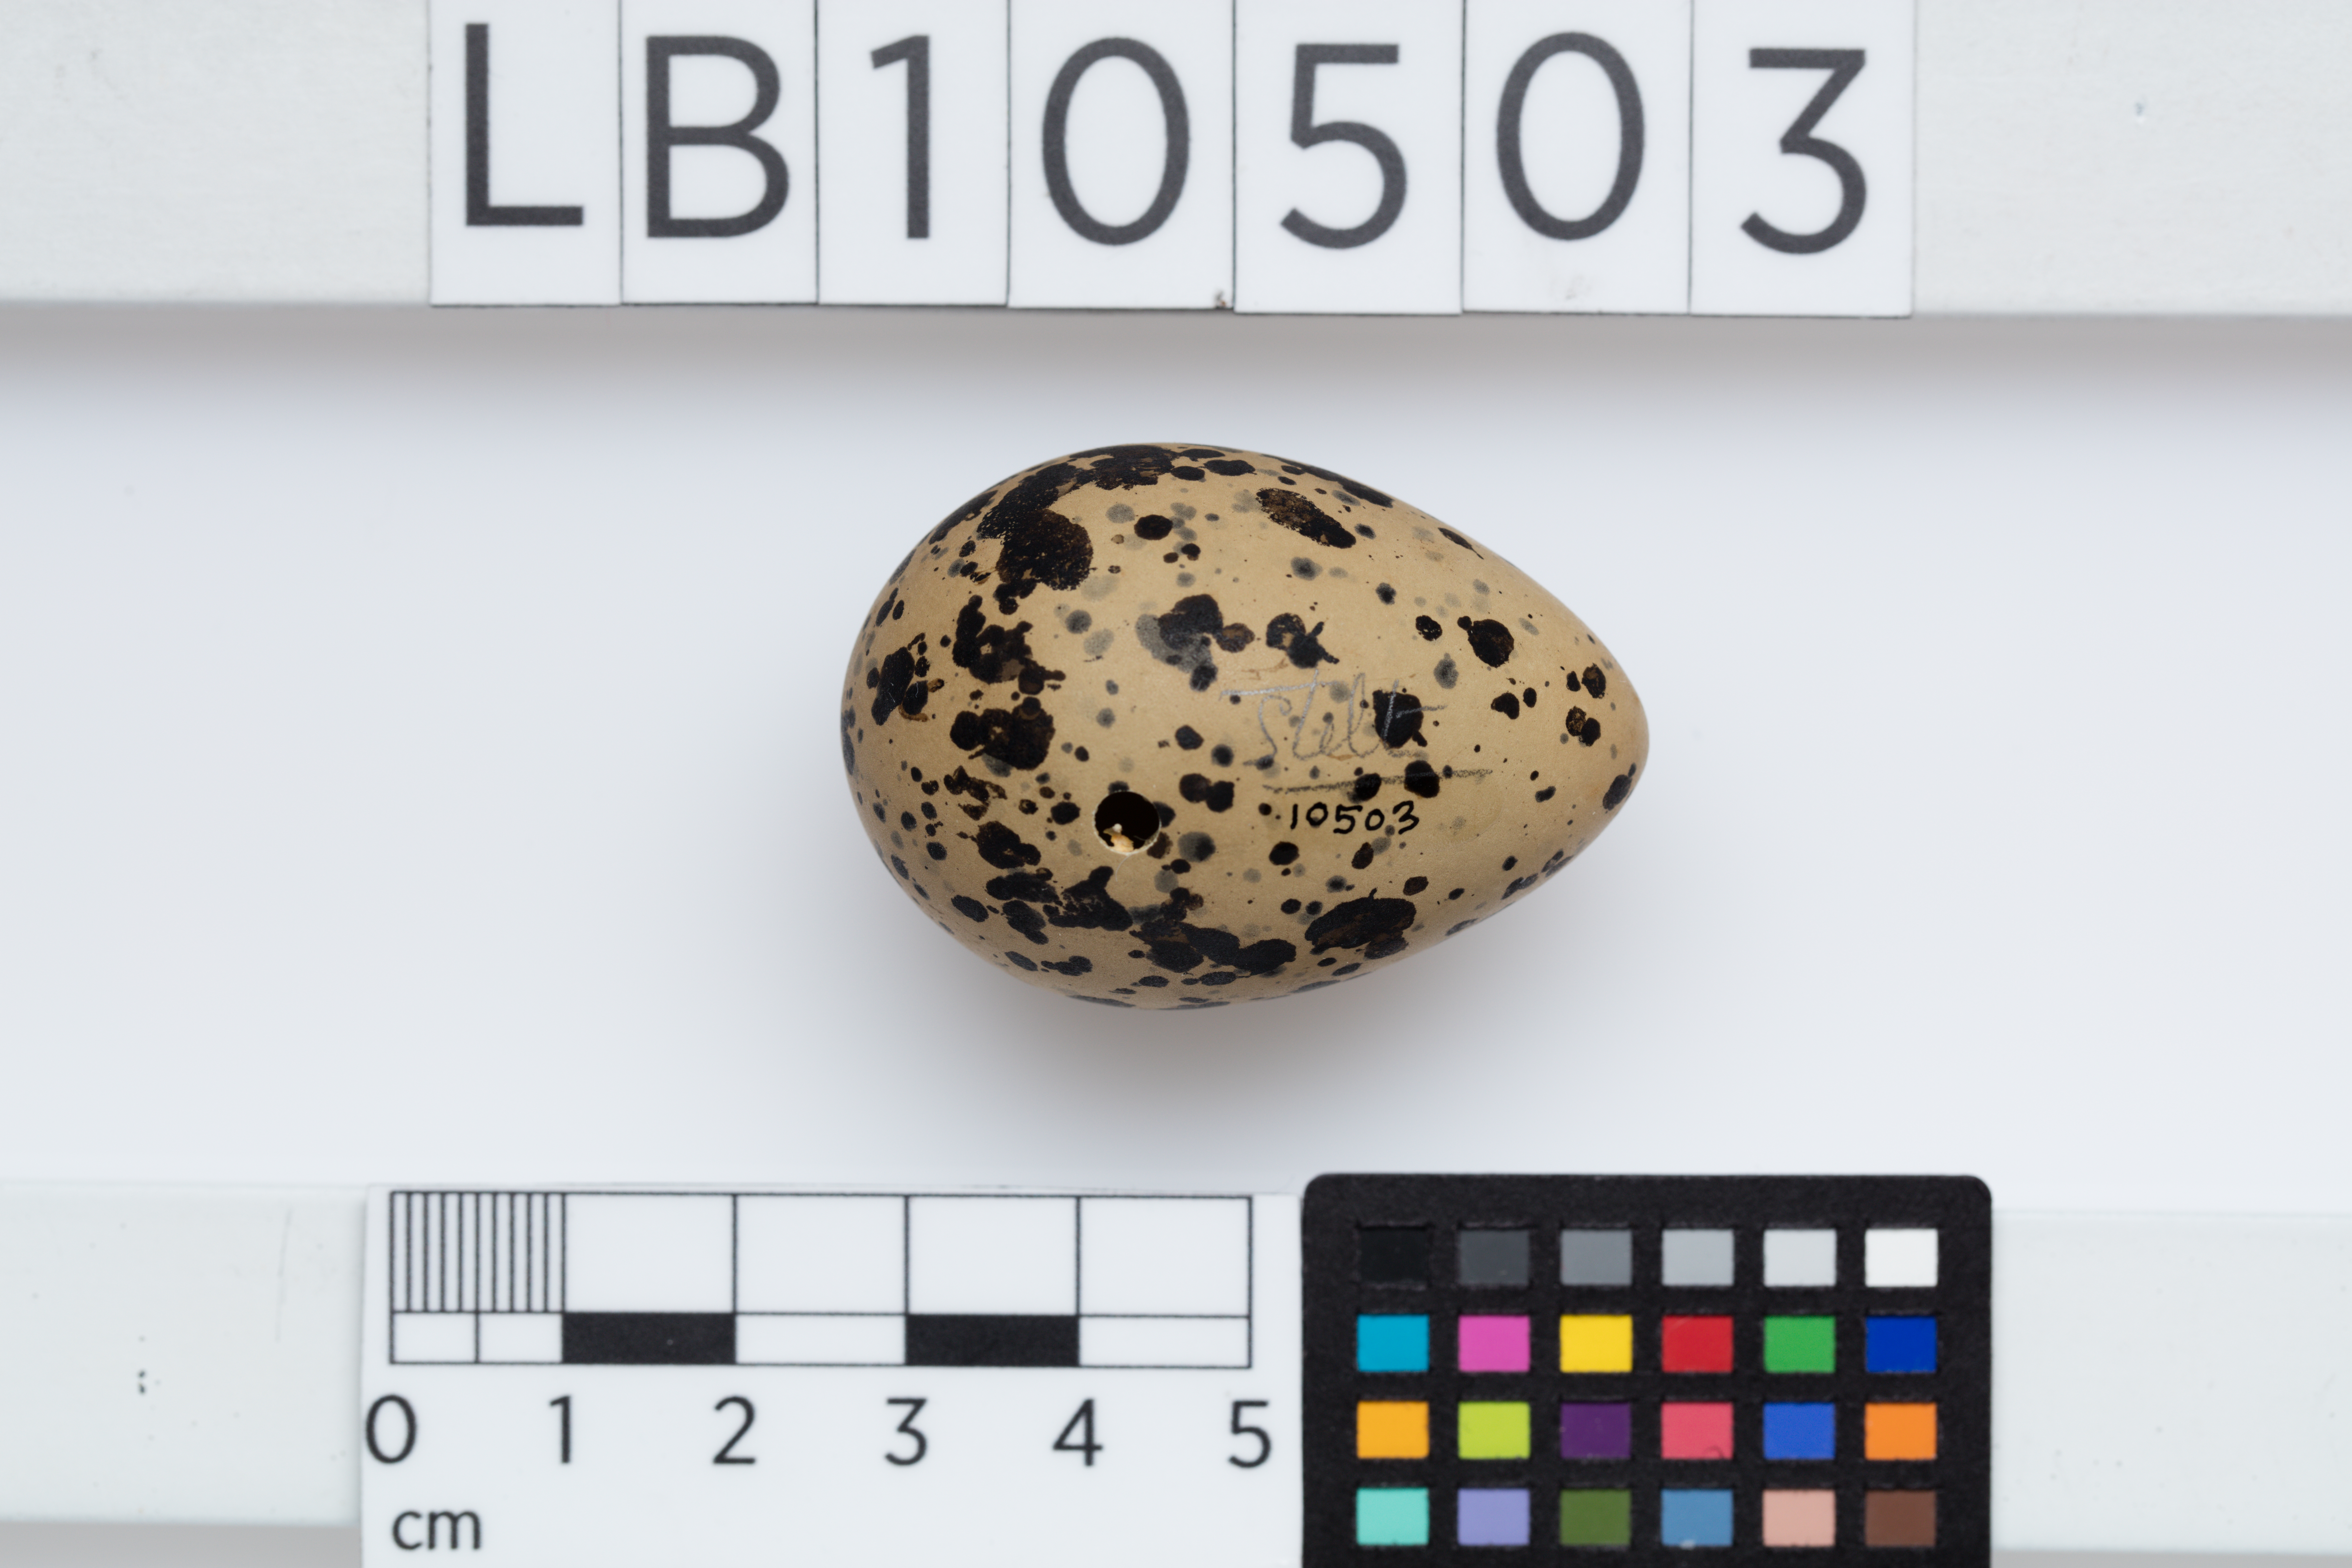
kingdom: Animalia
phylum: Chordata
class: Aves
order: Charadriiformes
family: Recurvirostridae
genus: Himantopus
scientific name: Himantopus himantopus
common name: Black-winged stilt
